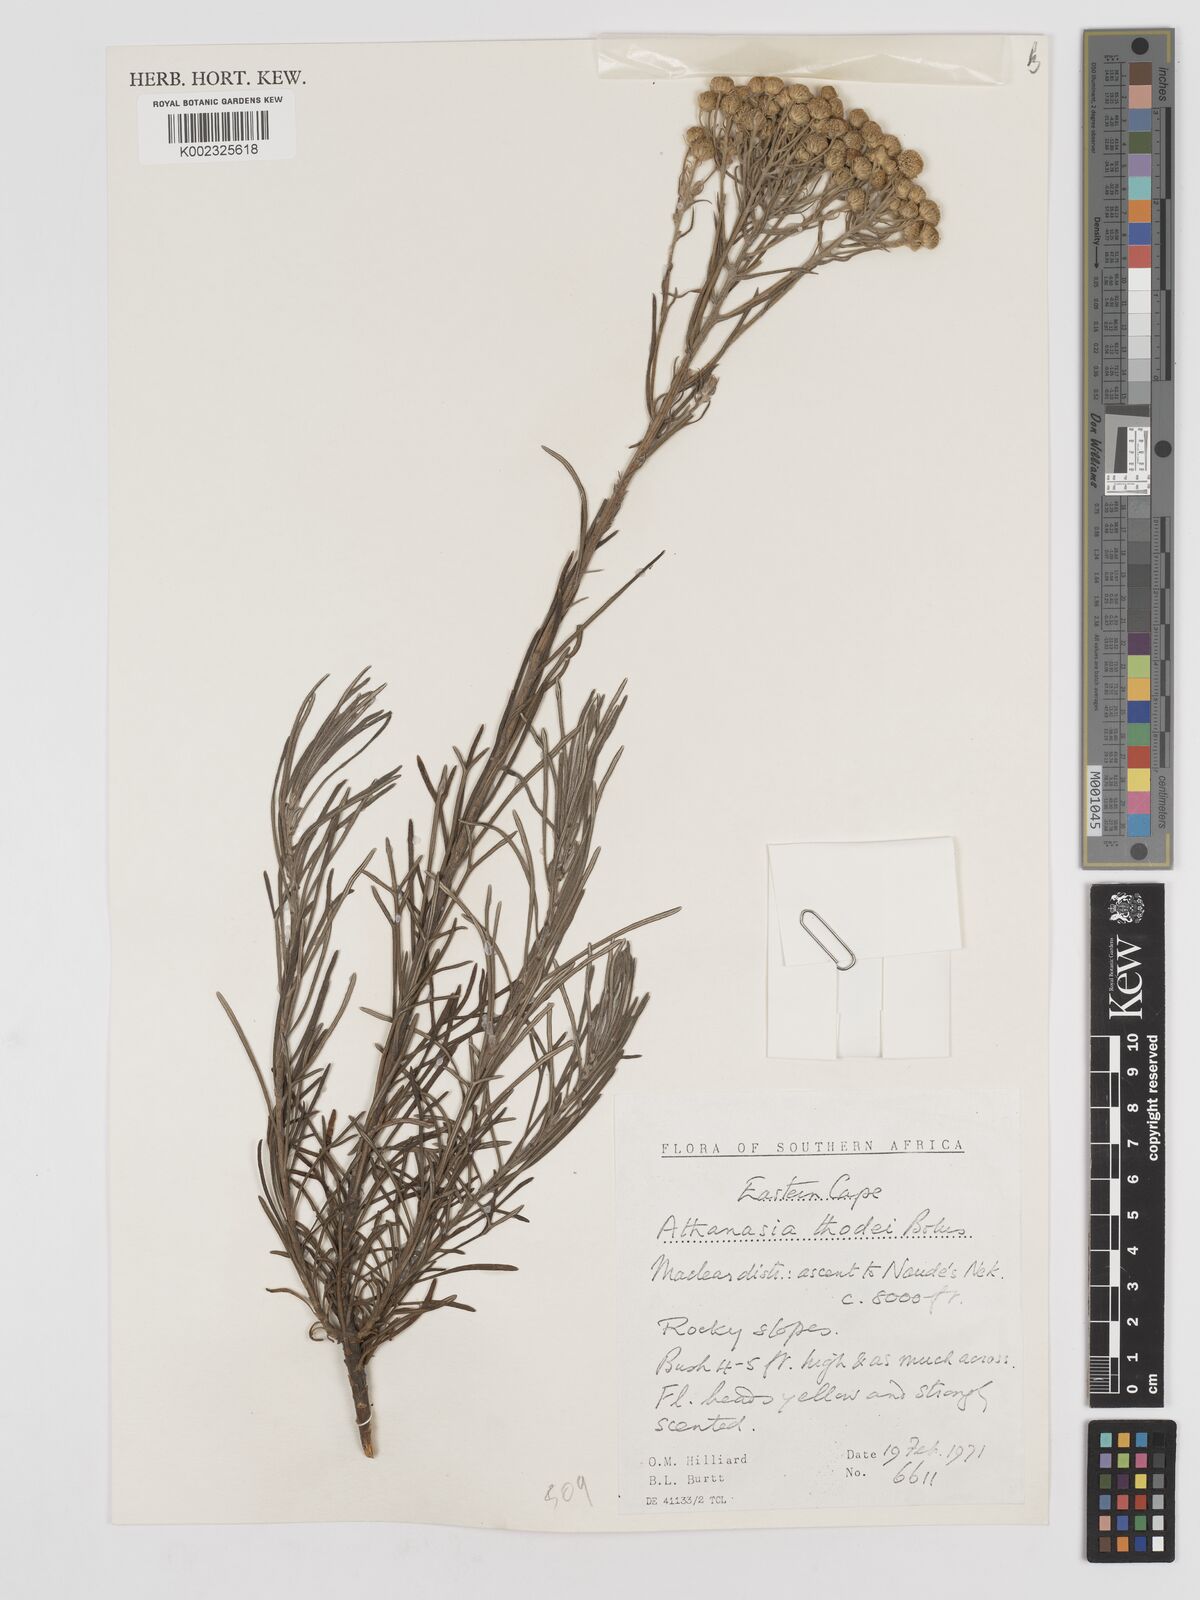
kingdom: Plantae
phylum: Tracheophyta
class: Magnoliopsida
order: Asterales
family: Asteraceae
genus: Inulanthera
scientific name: Inulanthera thodei
